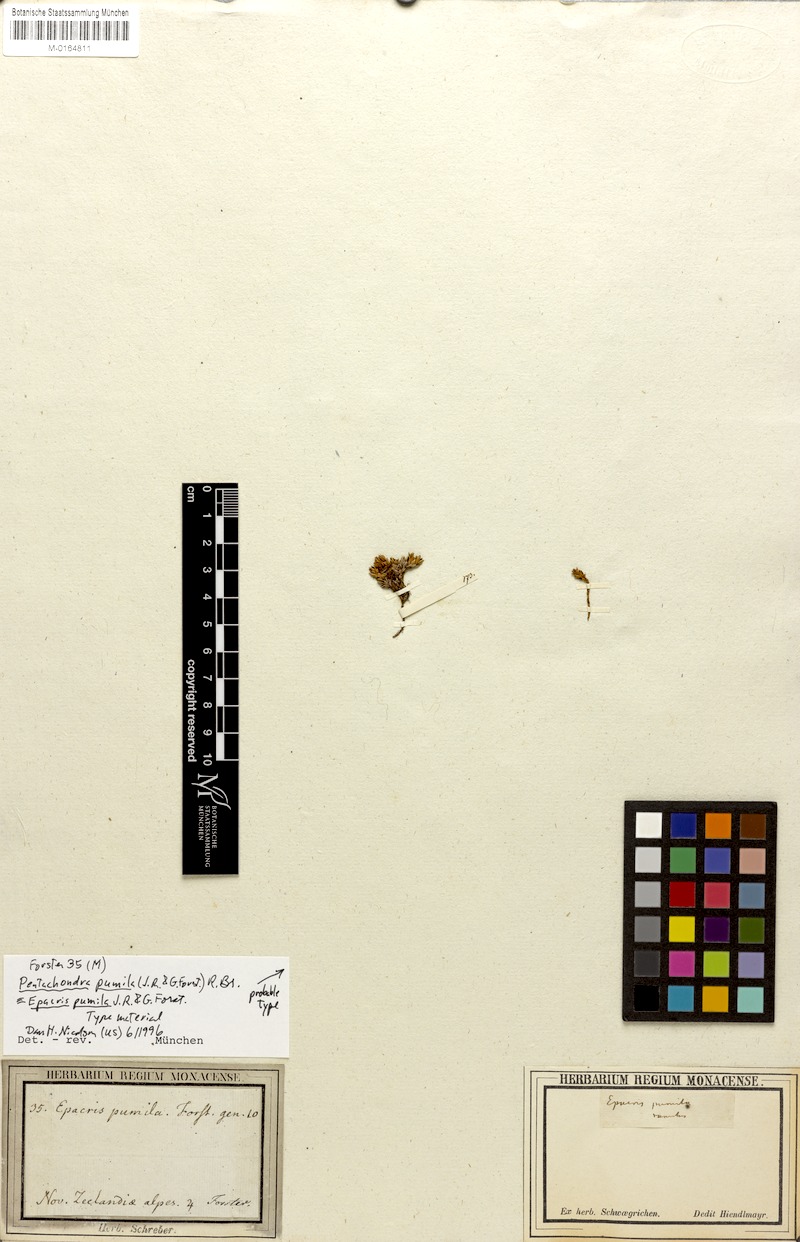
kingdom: Plantae
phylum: Tracheophyta
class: Magnoliopsida
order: Ericales
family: Ericaceae
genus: Pentachondra
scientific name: Pentachondra pumila
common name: Carpet-heath
